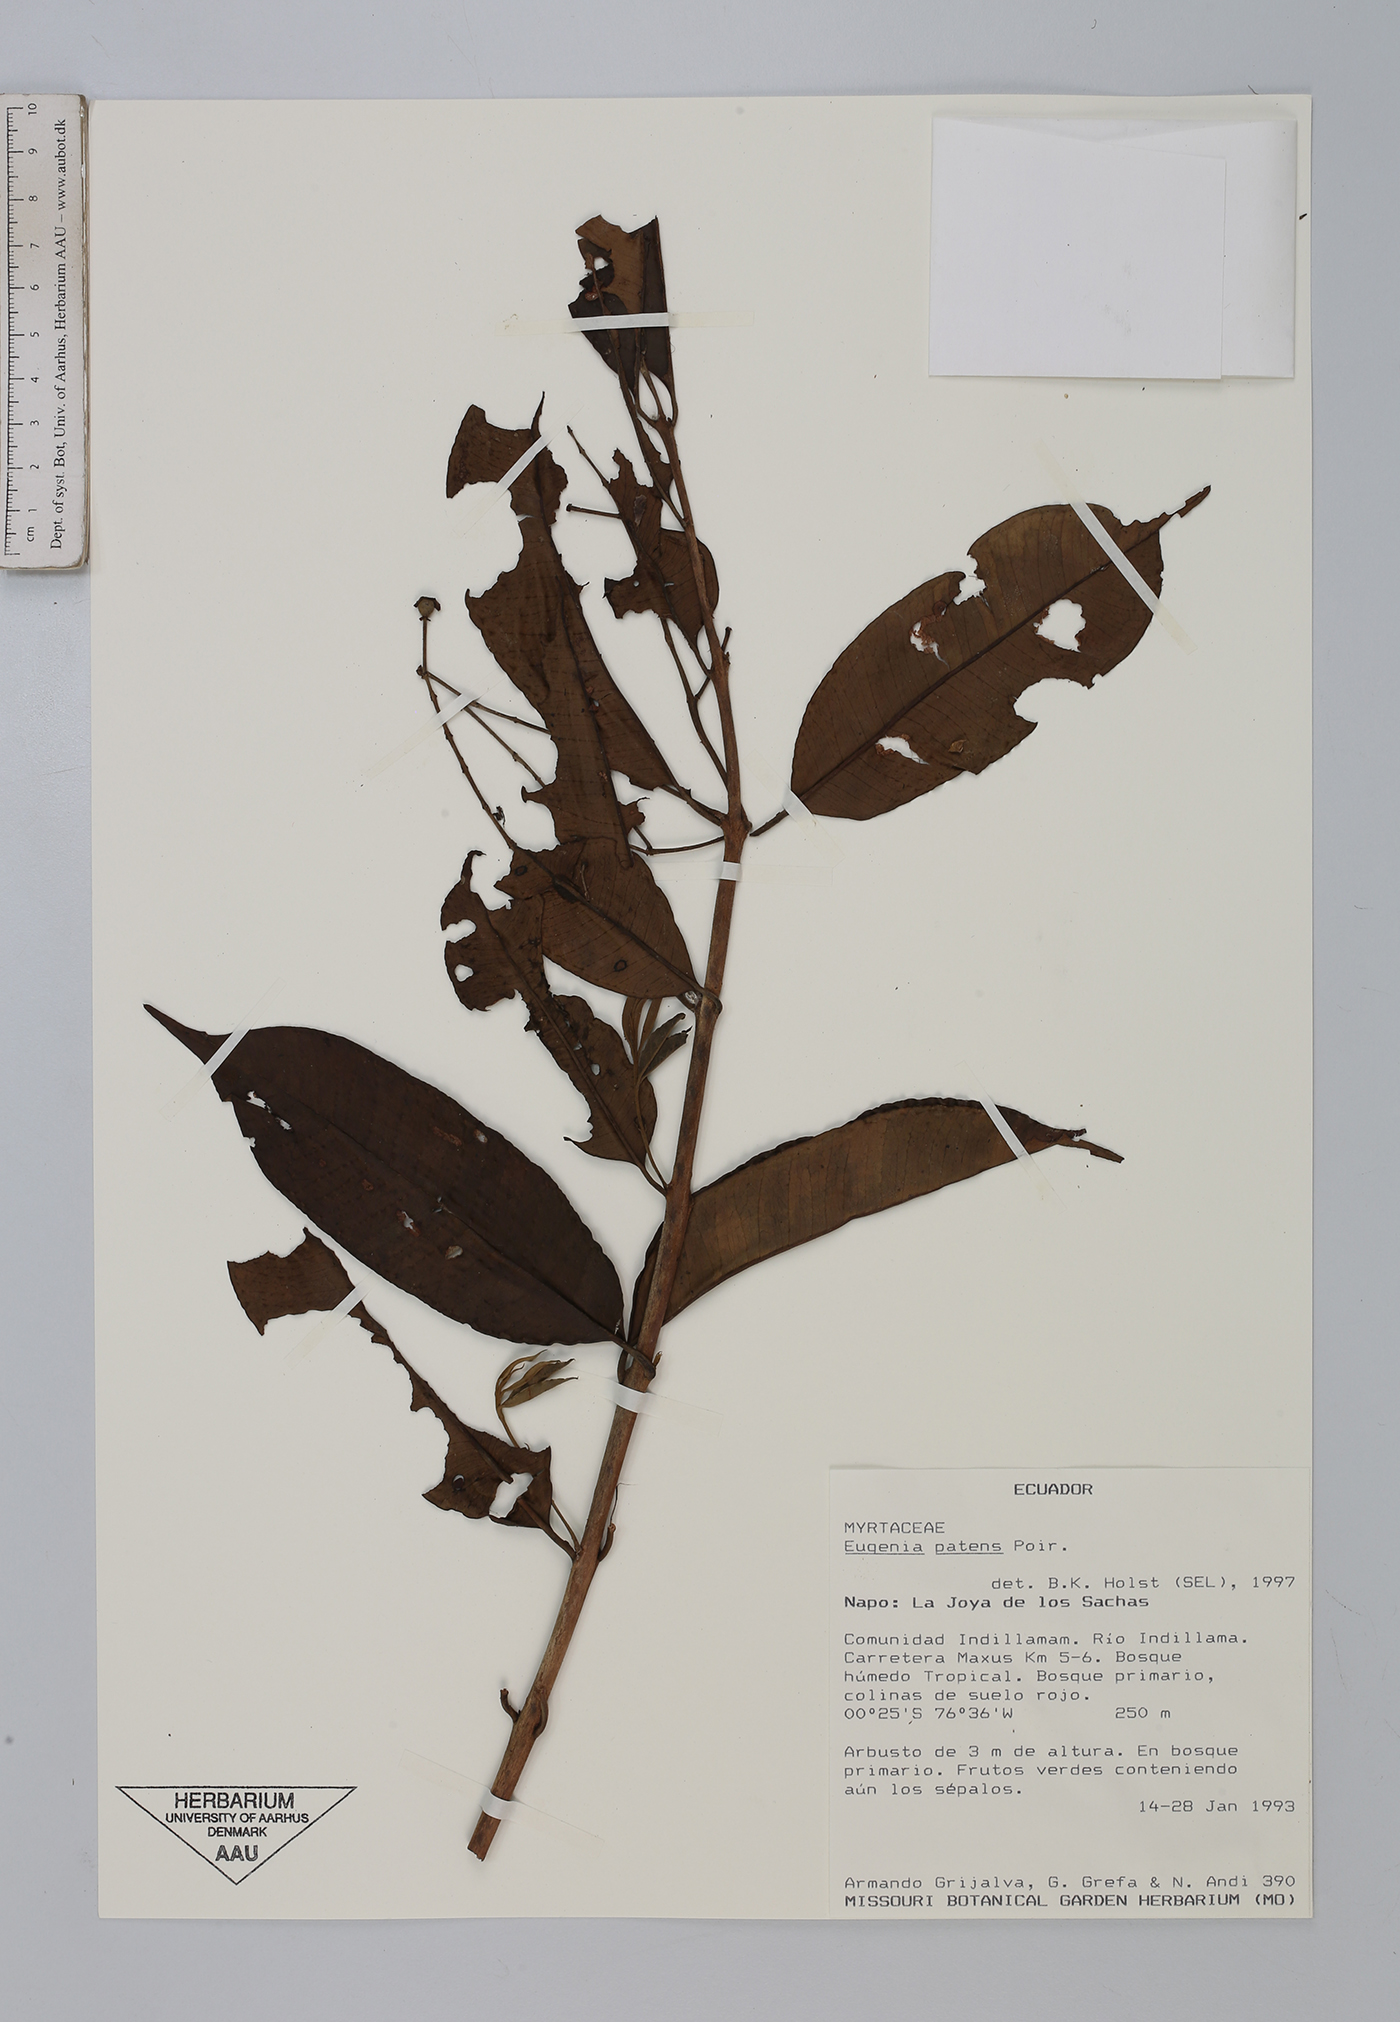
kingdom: Plantae
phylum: Tracheophyta
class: Magnoliopsida
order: Myrtales
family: Myrtaceae
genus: Eugenia
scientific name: Eugenia patens
